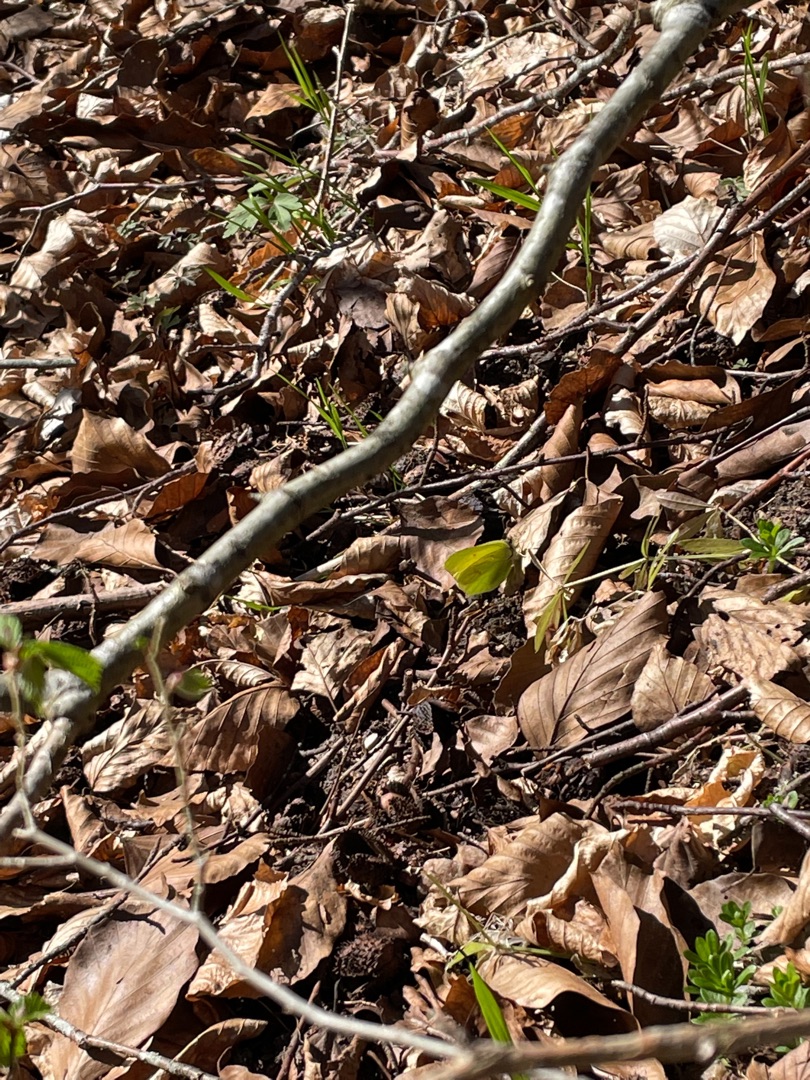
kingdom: Animalia
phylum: Arthropoda
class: Insecta
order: Lepidoptera
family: Pieridae
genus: Gonepteryx
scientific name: Gonepteryx rhamni
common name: Citronsommerfugl
